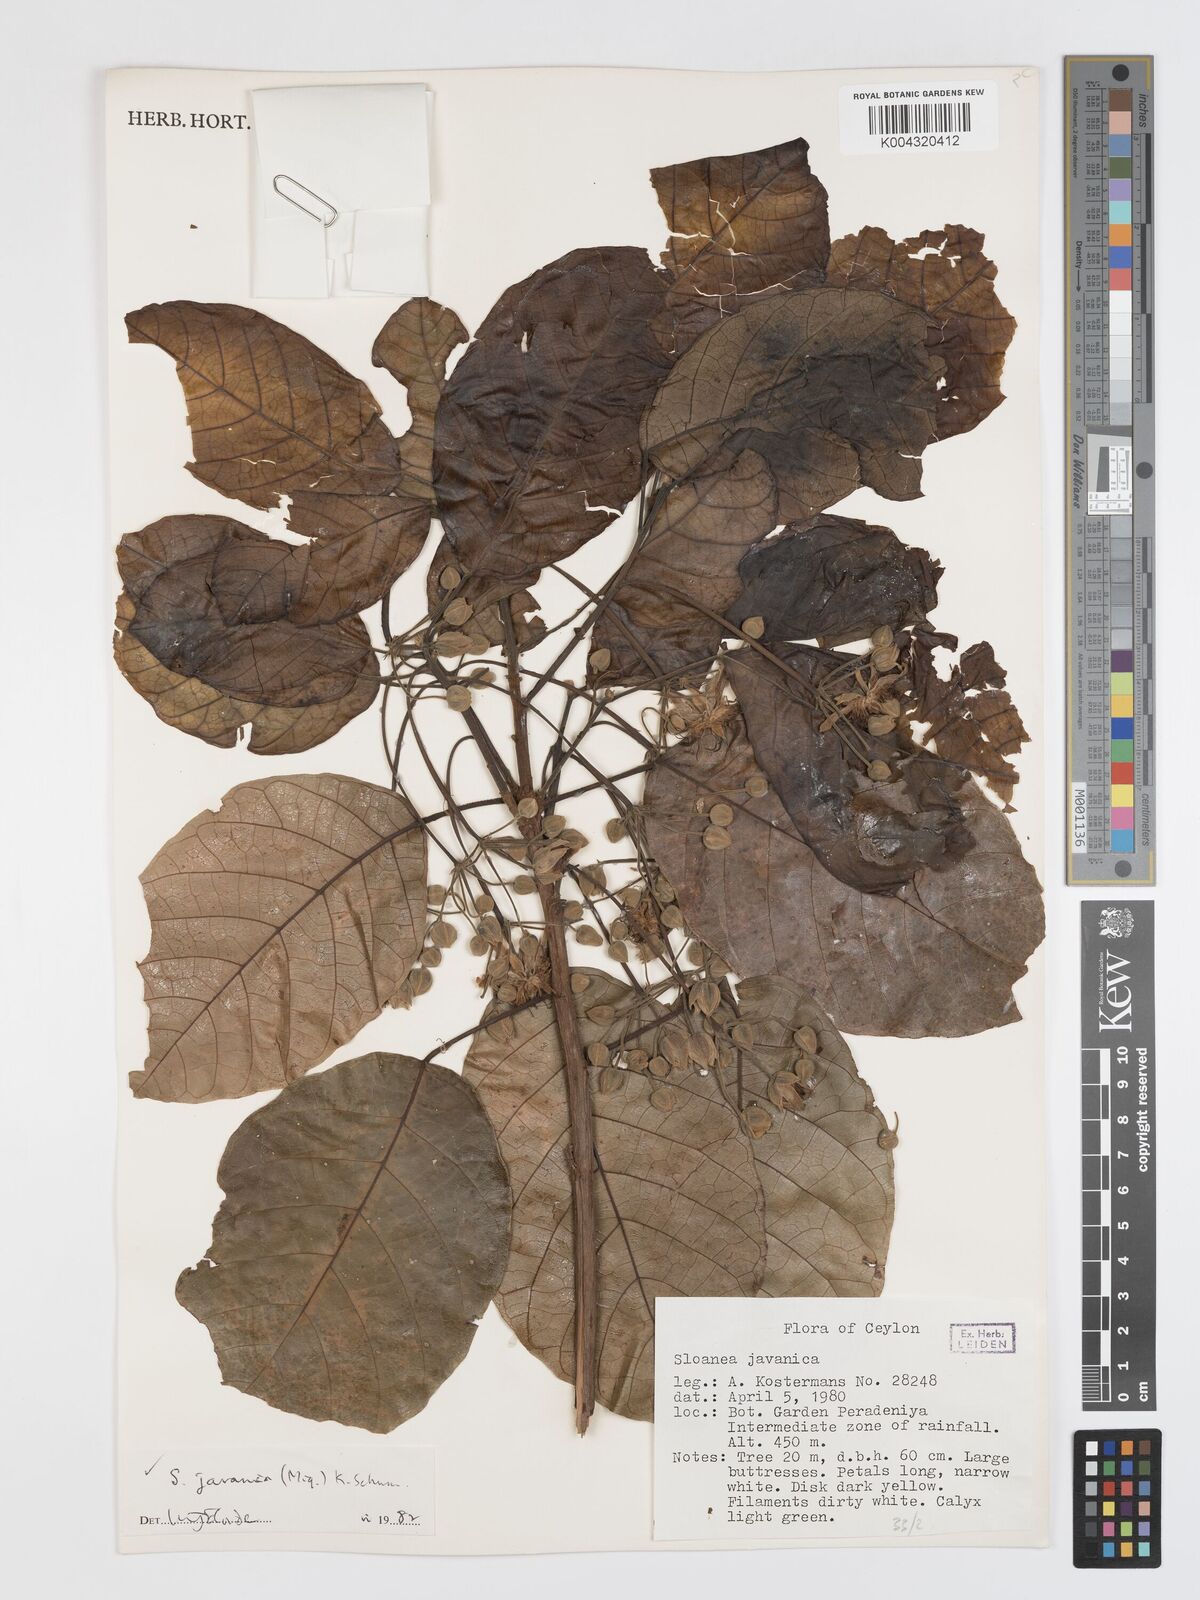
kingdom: Plantae
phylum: Tracheophyta
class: Magnoliopsida
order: Oxalidales
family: Elaeocarpaceae
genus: Sloanea
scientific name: Sloanea javanica
